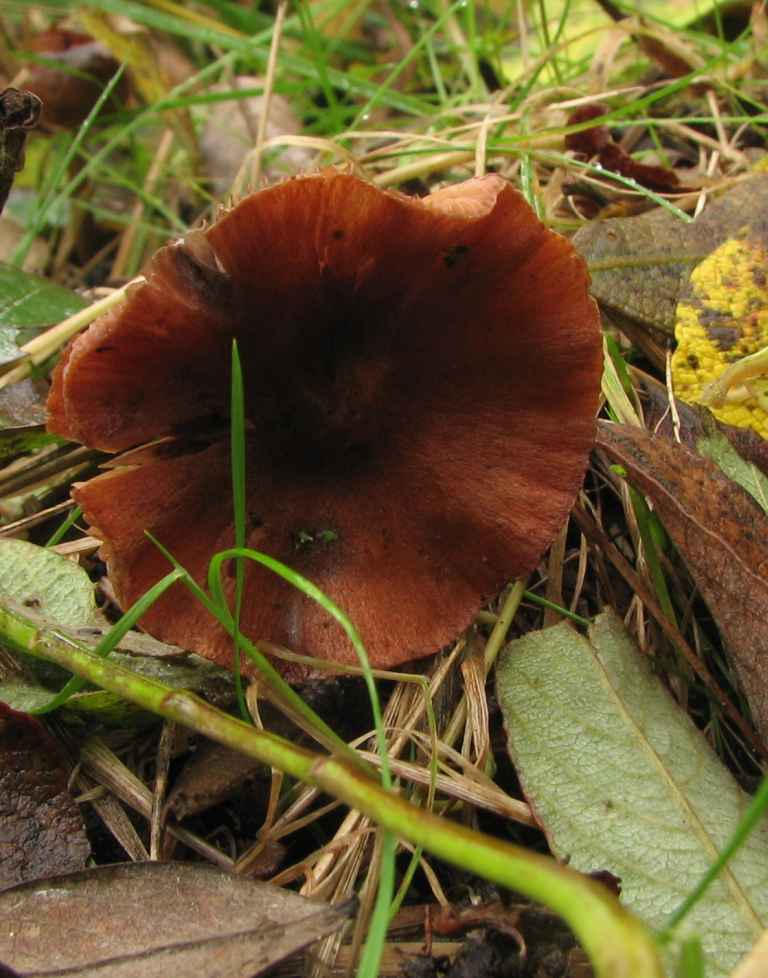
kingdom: Fungi
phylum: Basidiomycota
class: Agaricomycetes
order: Agaricales
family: Cortinariaceae
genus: Cortinarius
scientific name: Cortinarius uliginosus
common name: mose-slørhat
